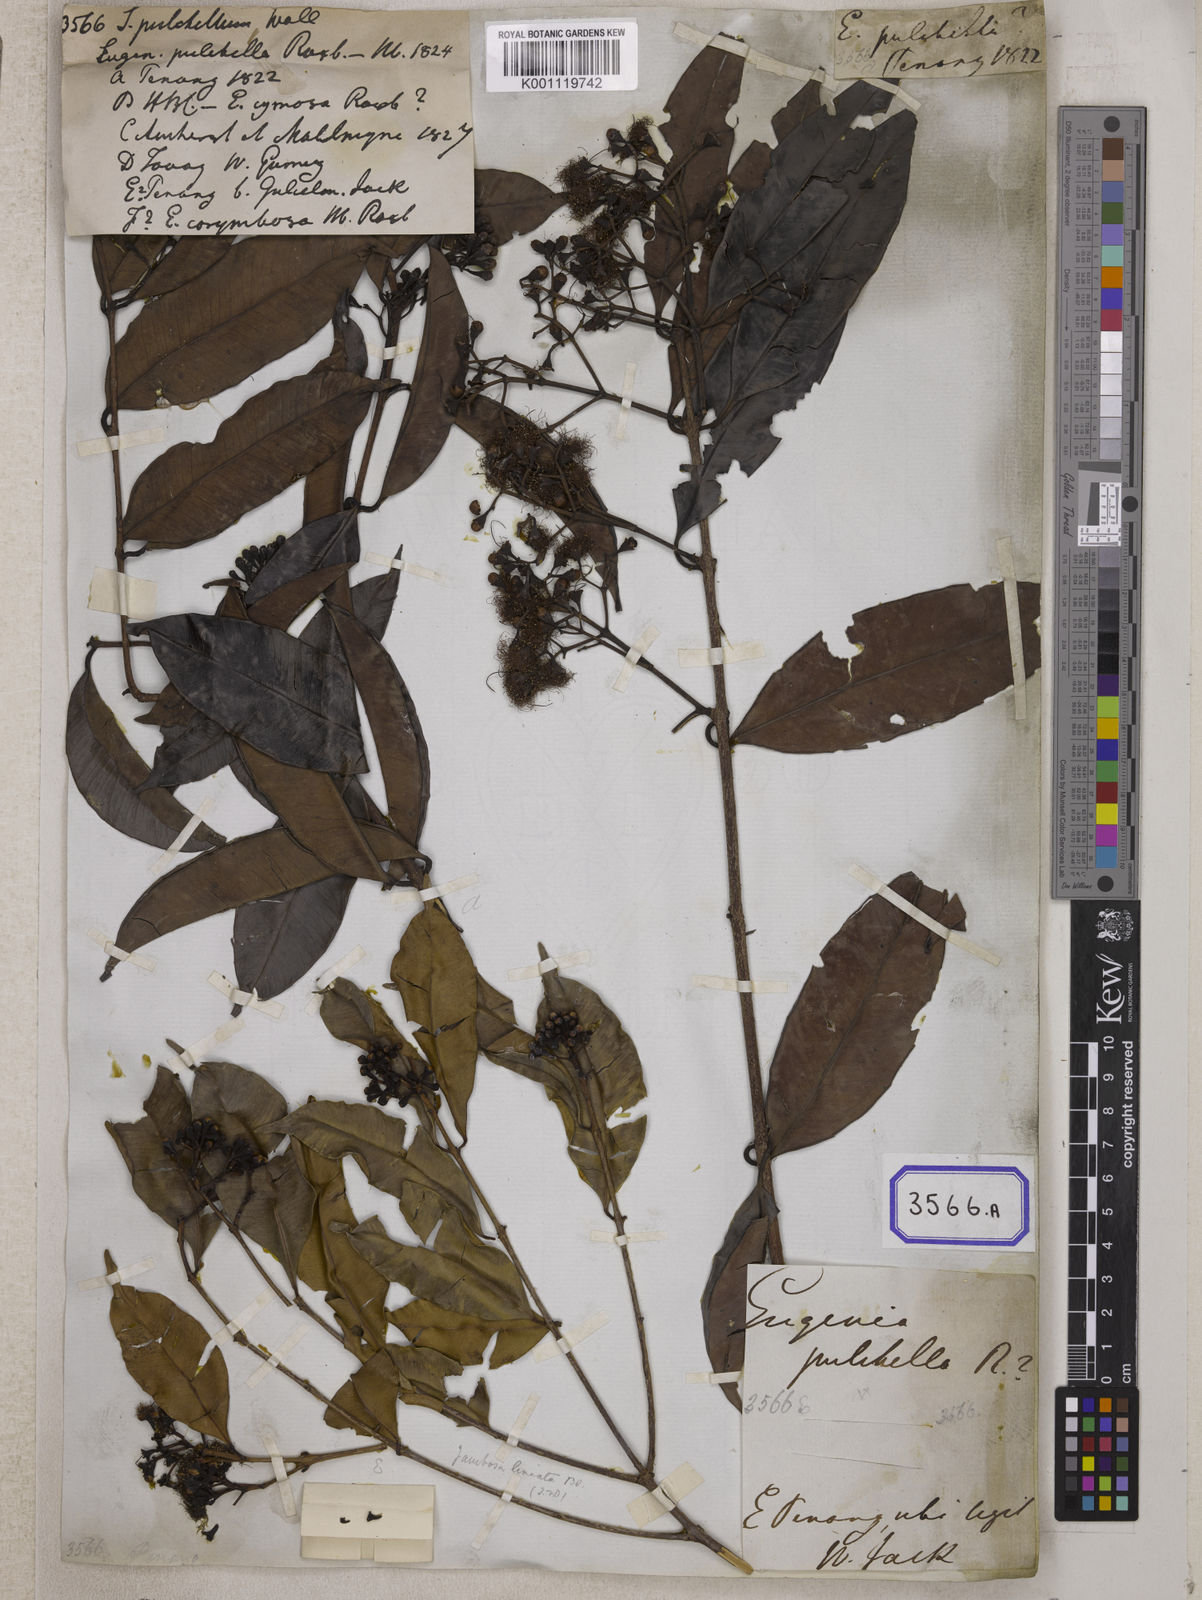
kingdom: Plantae
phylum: Tracheophyta
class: Magnoliopsida
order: Myrtales
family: Myrtaceae
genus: Syzygium
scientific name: Syzygium
